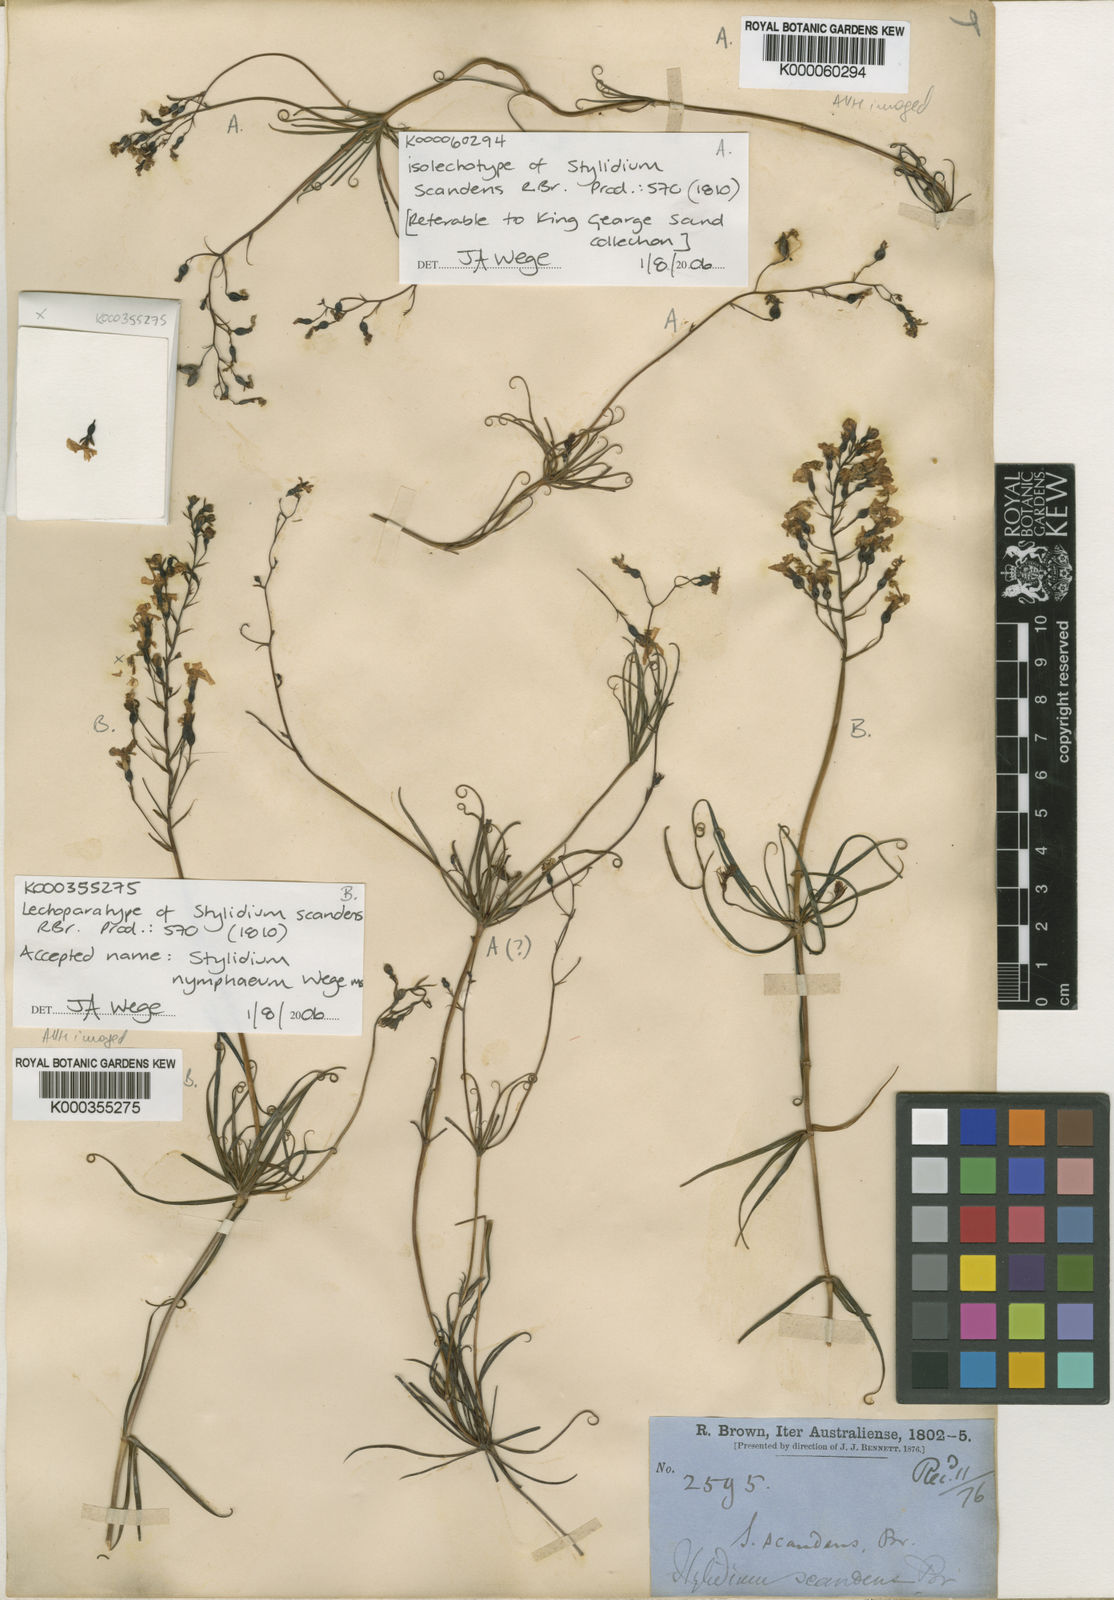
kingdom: Plantae
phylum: Tracheophyta
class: Magnoliopsida
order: Asterales
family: Stylidiaceae
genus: Stylidium
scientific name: Stylidium scandens
